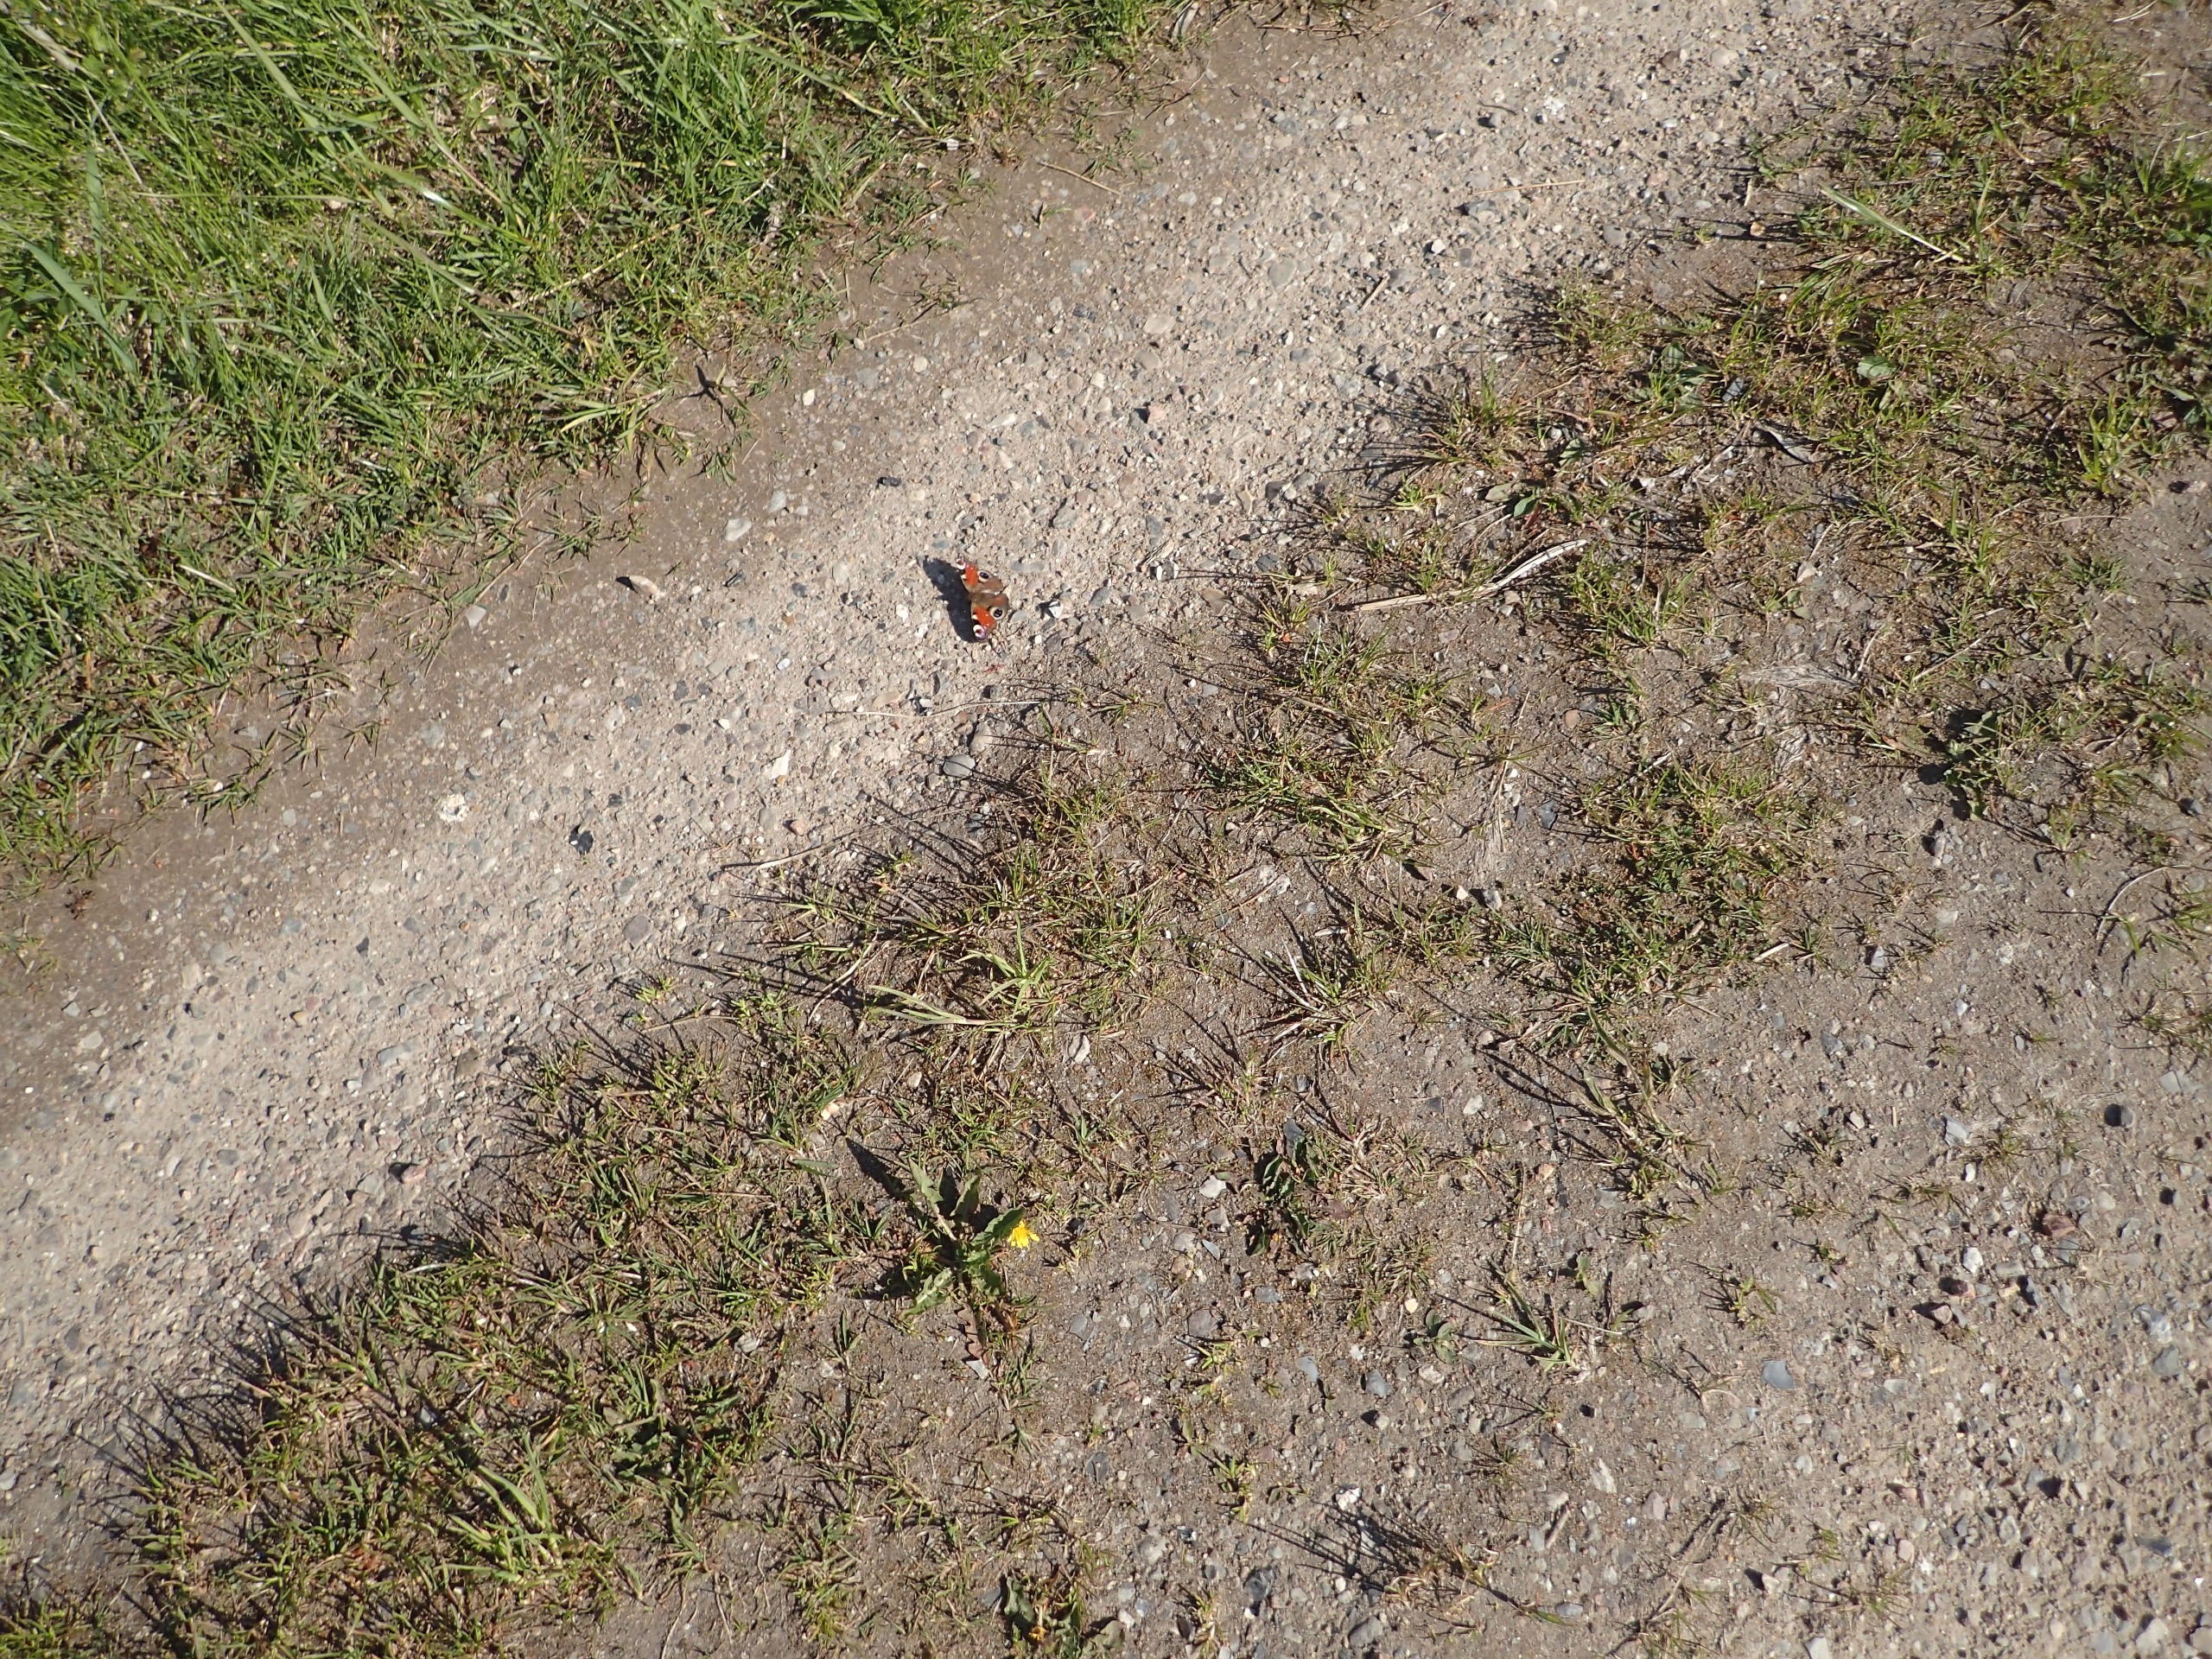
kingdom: Animalia
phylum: Arthropoda
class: Insecta
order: Lepidoptera
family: Nymphalidae
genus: Aglais
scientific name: Aglais io
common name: Dagpåfugleøje
